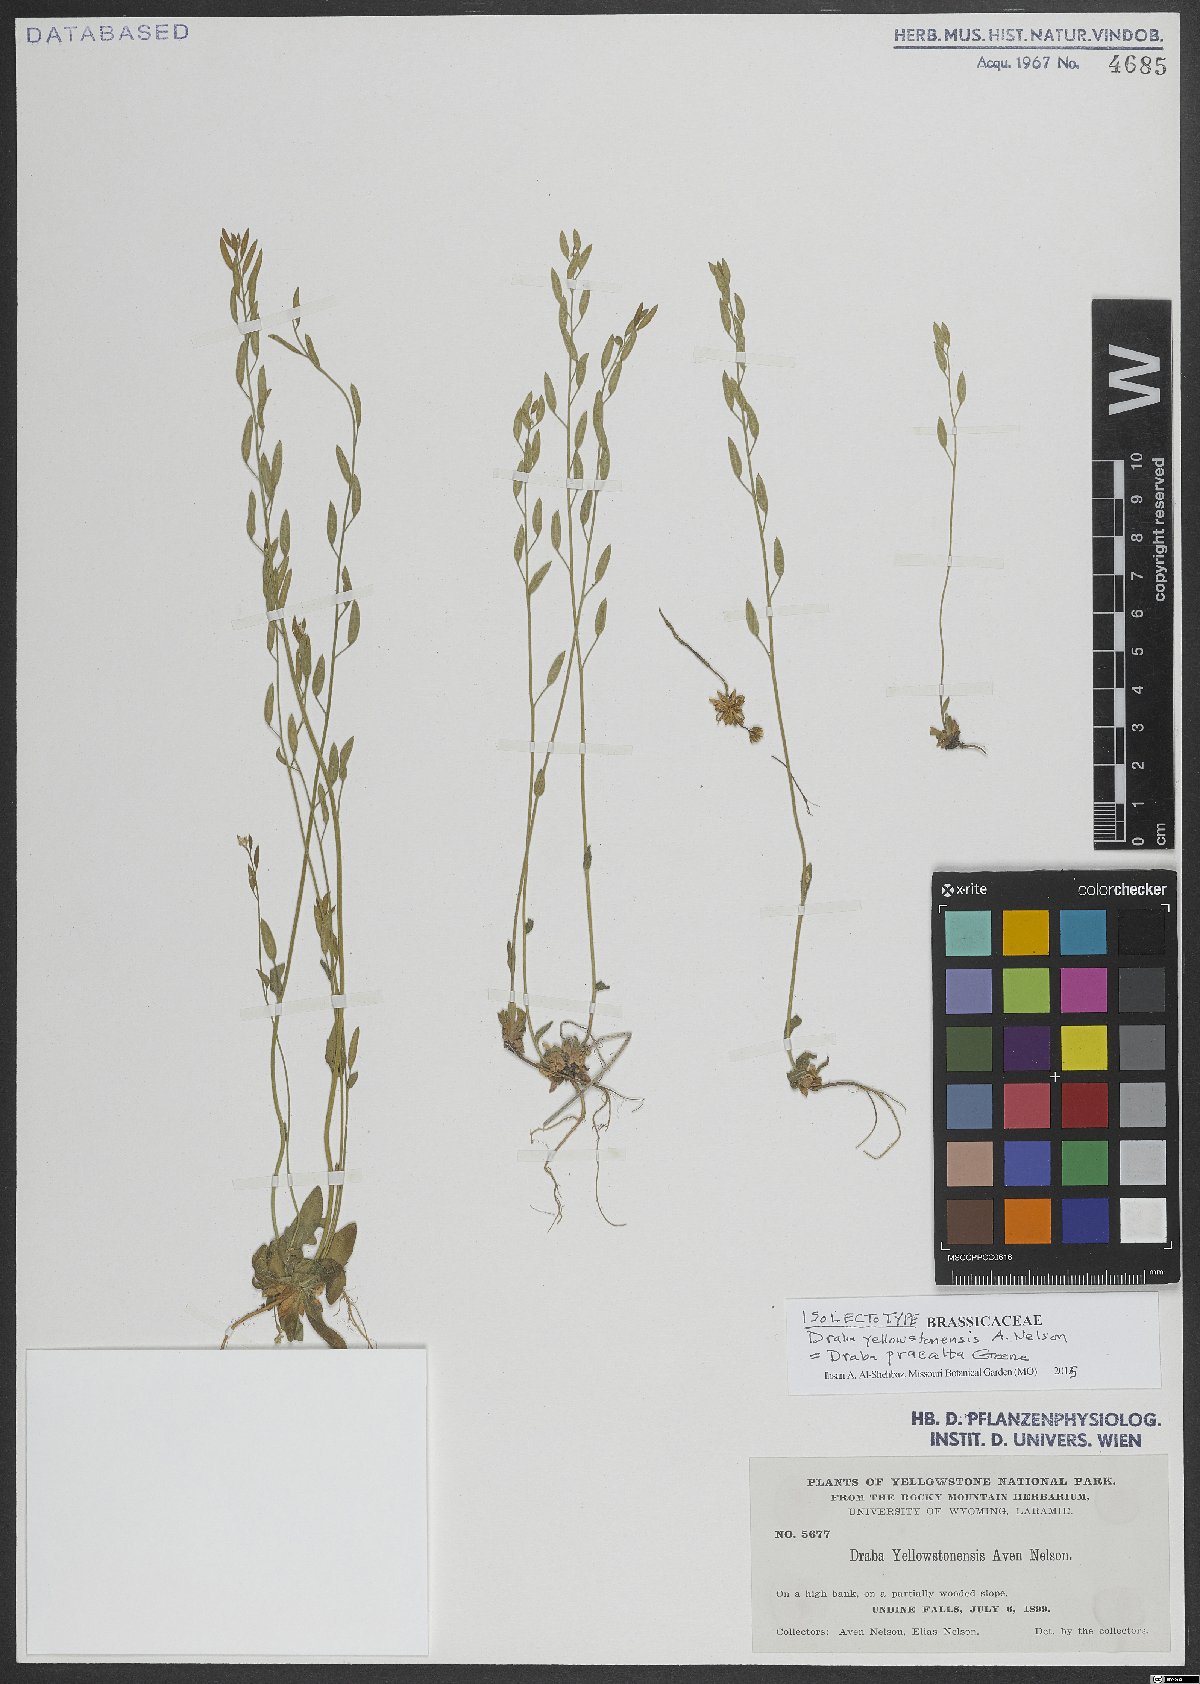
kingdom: Plantae
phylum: Tracheophyta
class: Magnoliopsida
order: Brassicales
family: Brassicaceae
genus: Draba
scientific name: Draba praealta
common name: Tall draba
